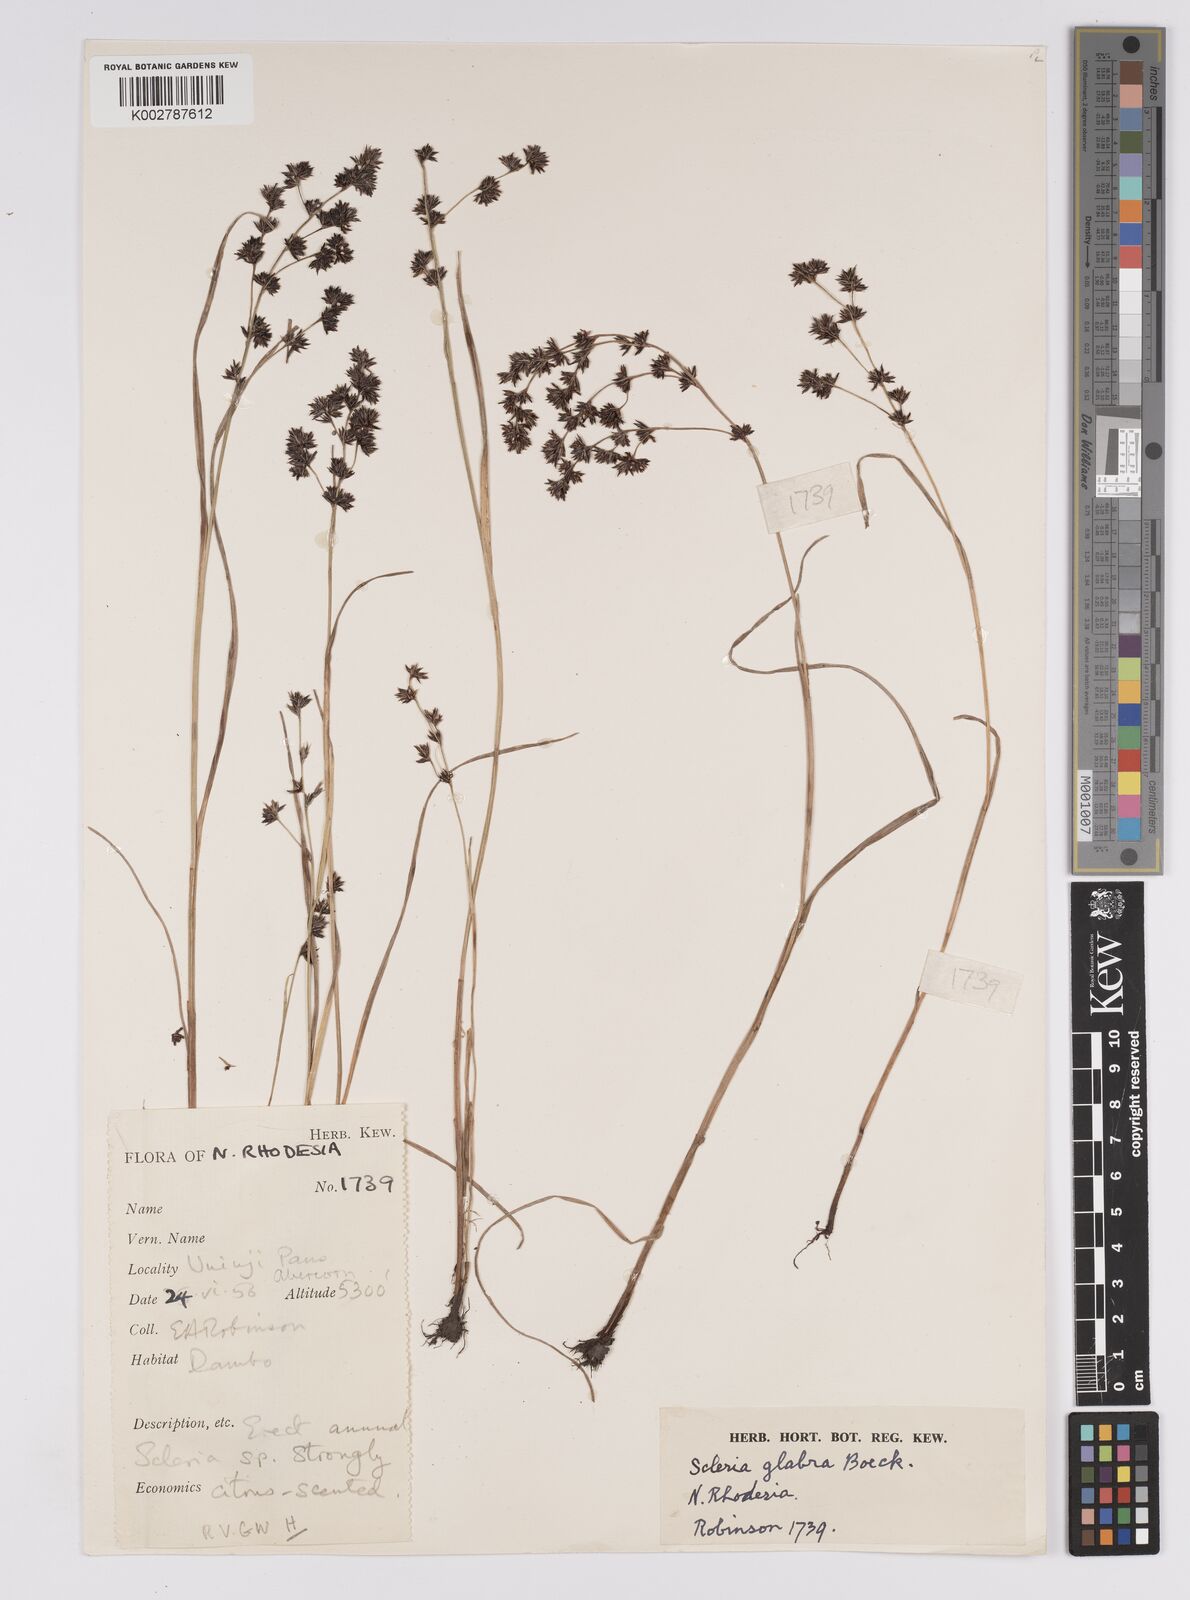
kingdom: Plantae
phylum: Tracheophyta
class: Liliopsida
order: Poales
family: Cyperaceae
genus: Scleria
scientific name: Scleria glabra
